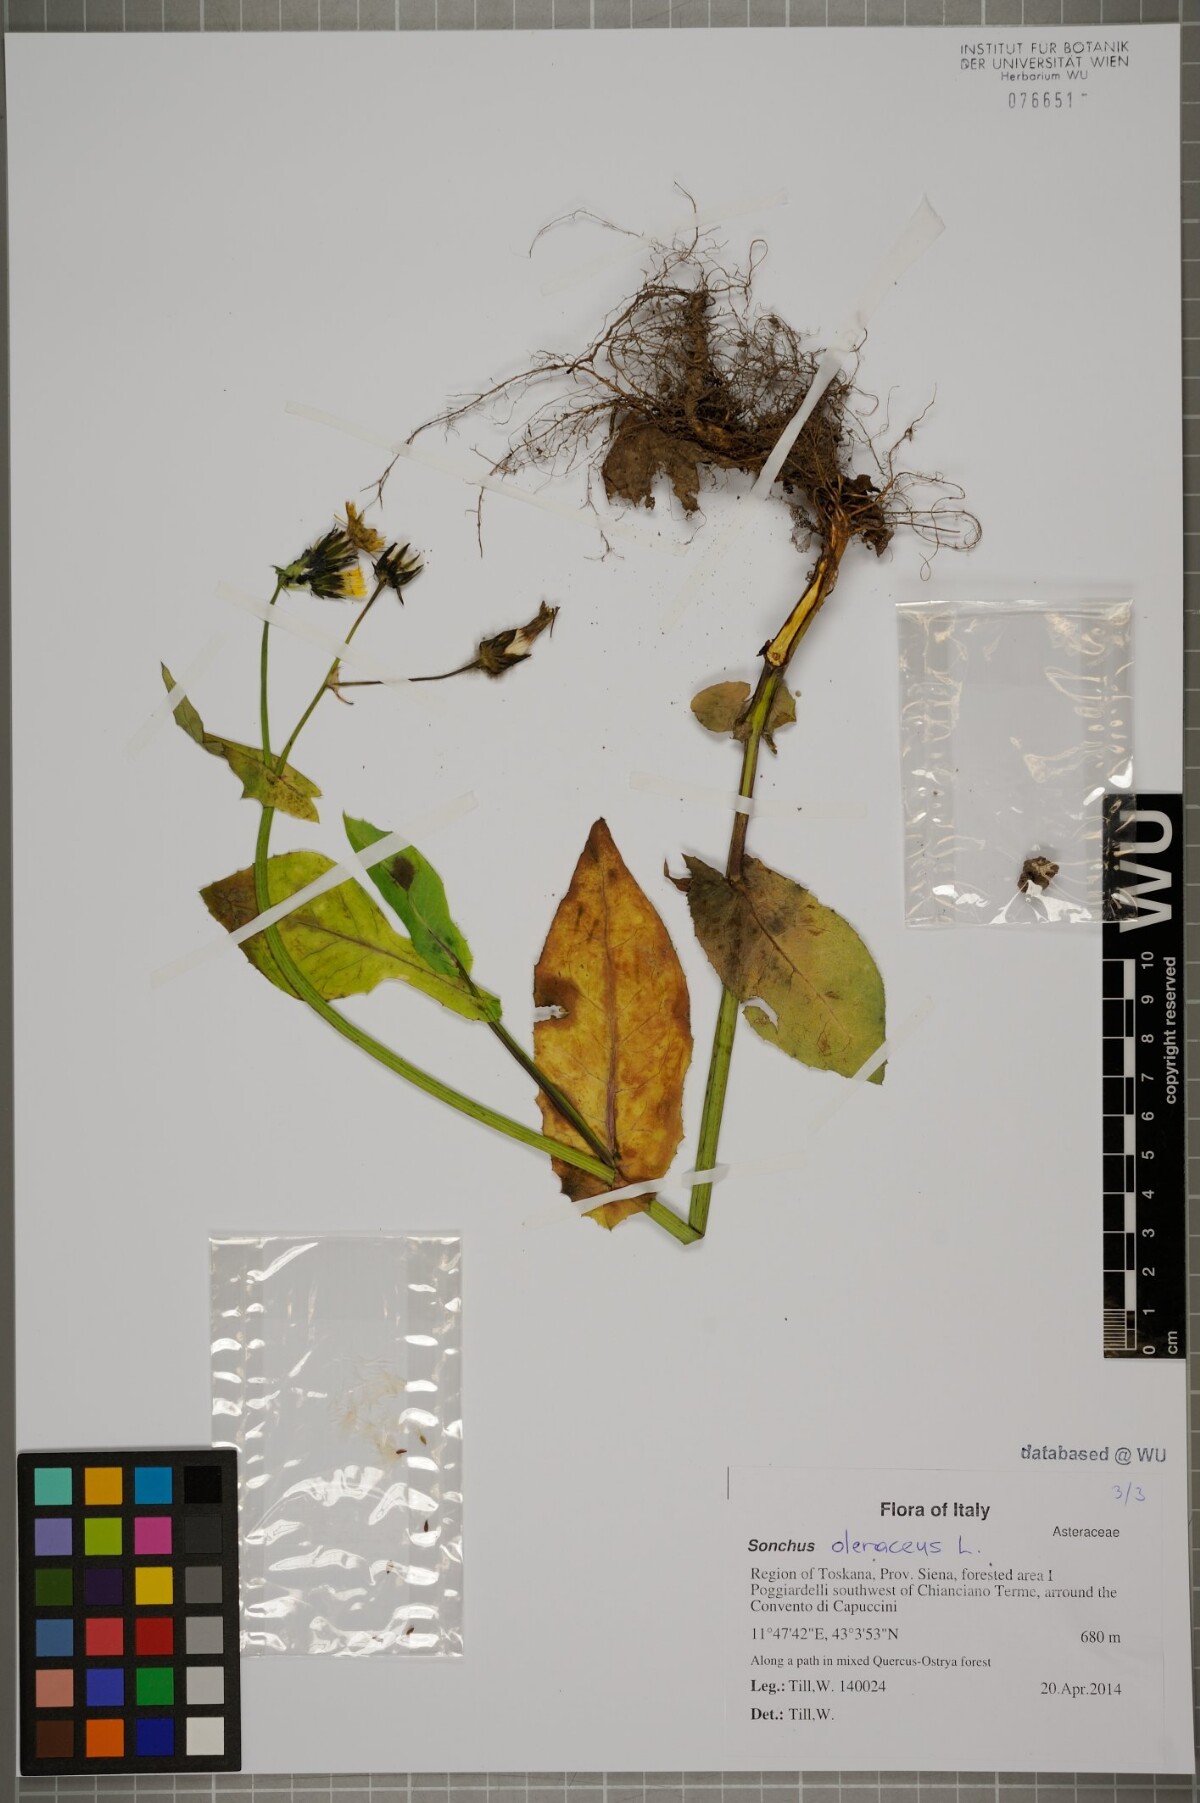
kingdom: Plantae
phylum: Tracheophyta
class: Magnoliopsida
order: Asterales
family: Asteraceae
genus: Sonchus
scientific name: Sonchus oleraceus
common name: Common sowthistle
